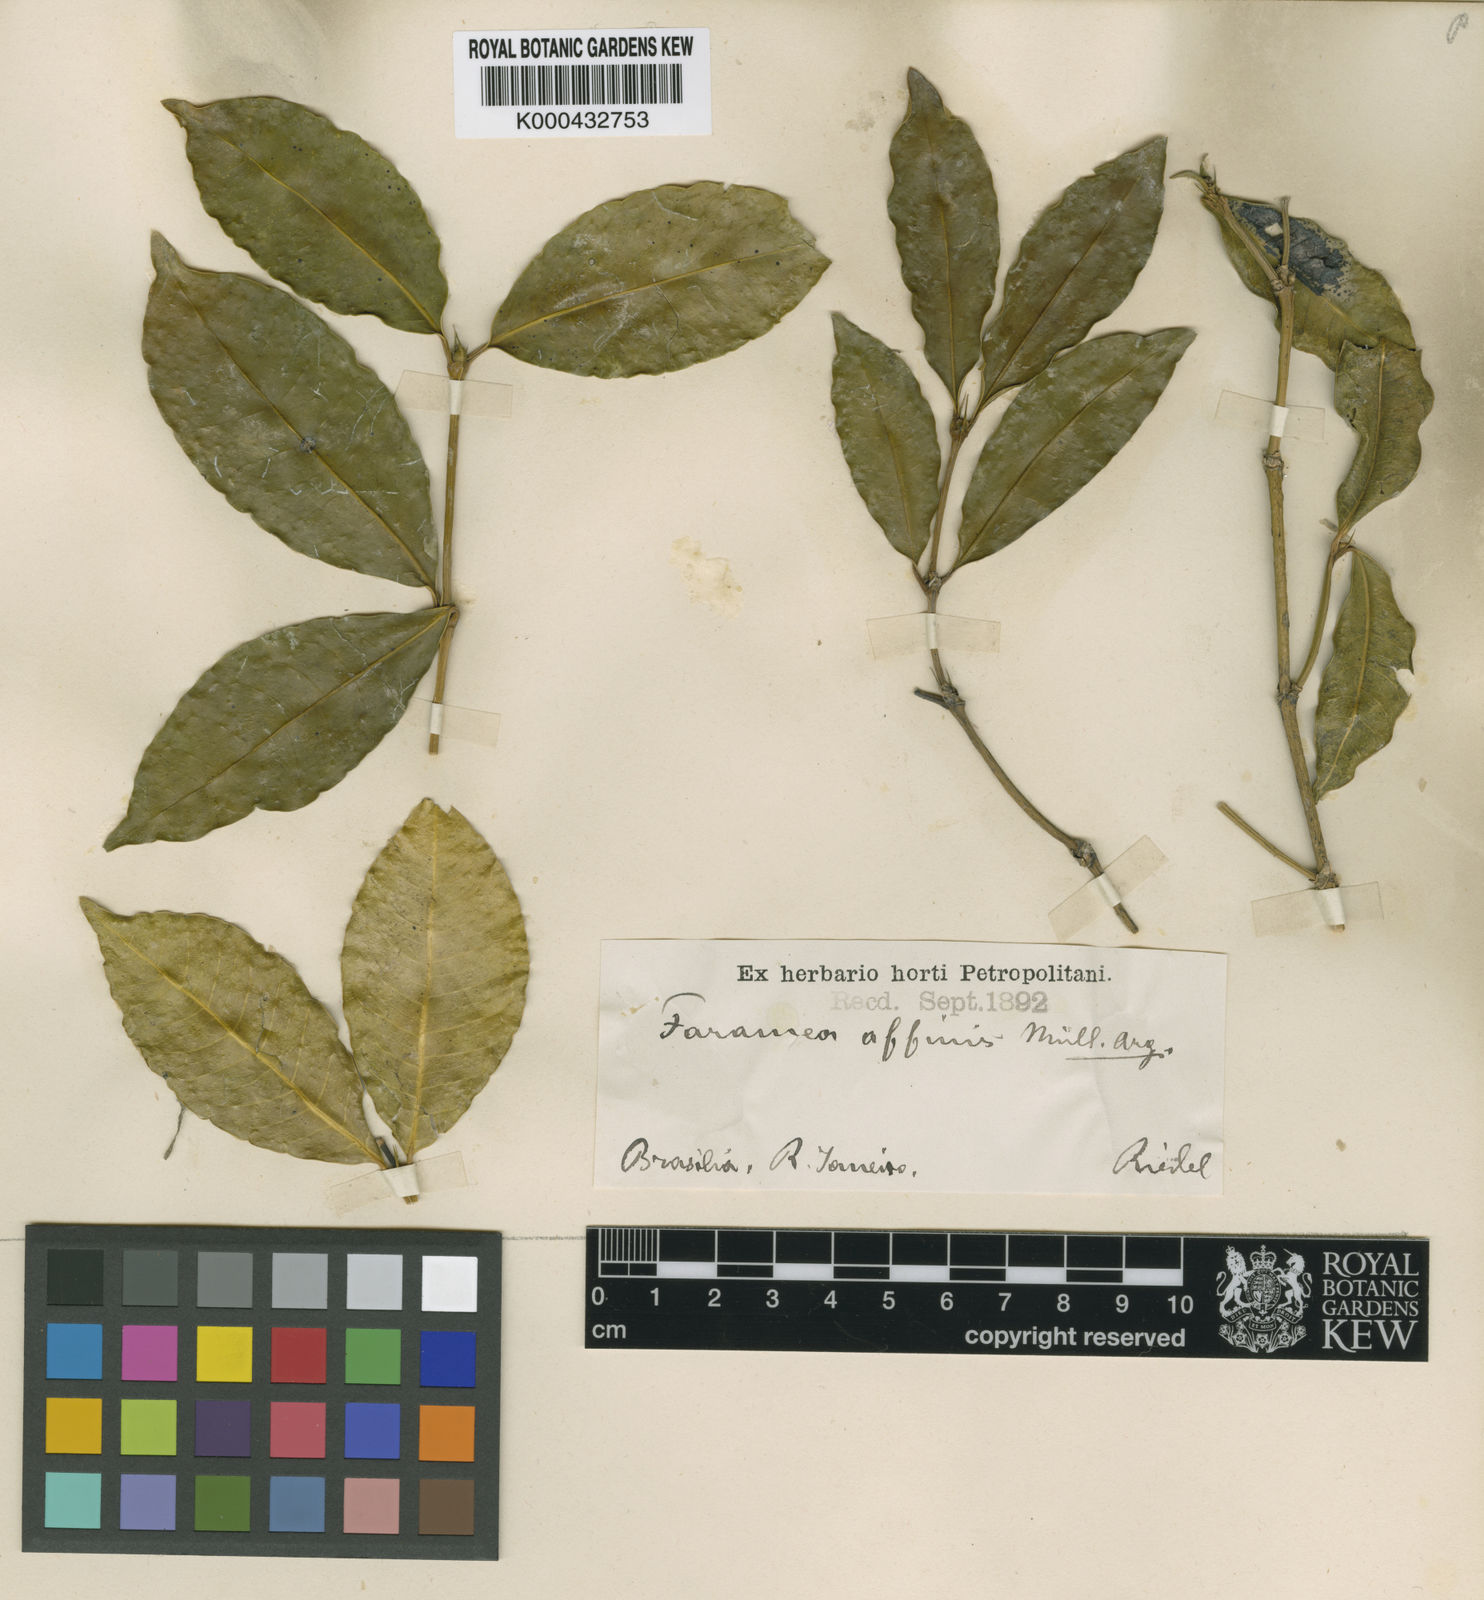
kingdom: Plantae
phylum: Tracheophyta
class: Magnoliopsida
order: Gentianales
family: Rubiaceae
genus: Faramea
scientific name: Faramea
